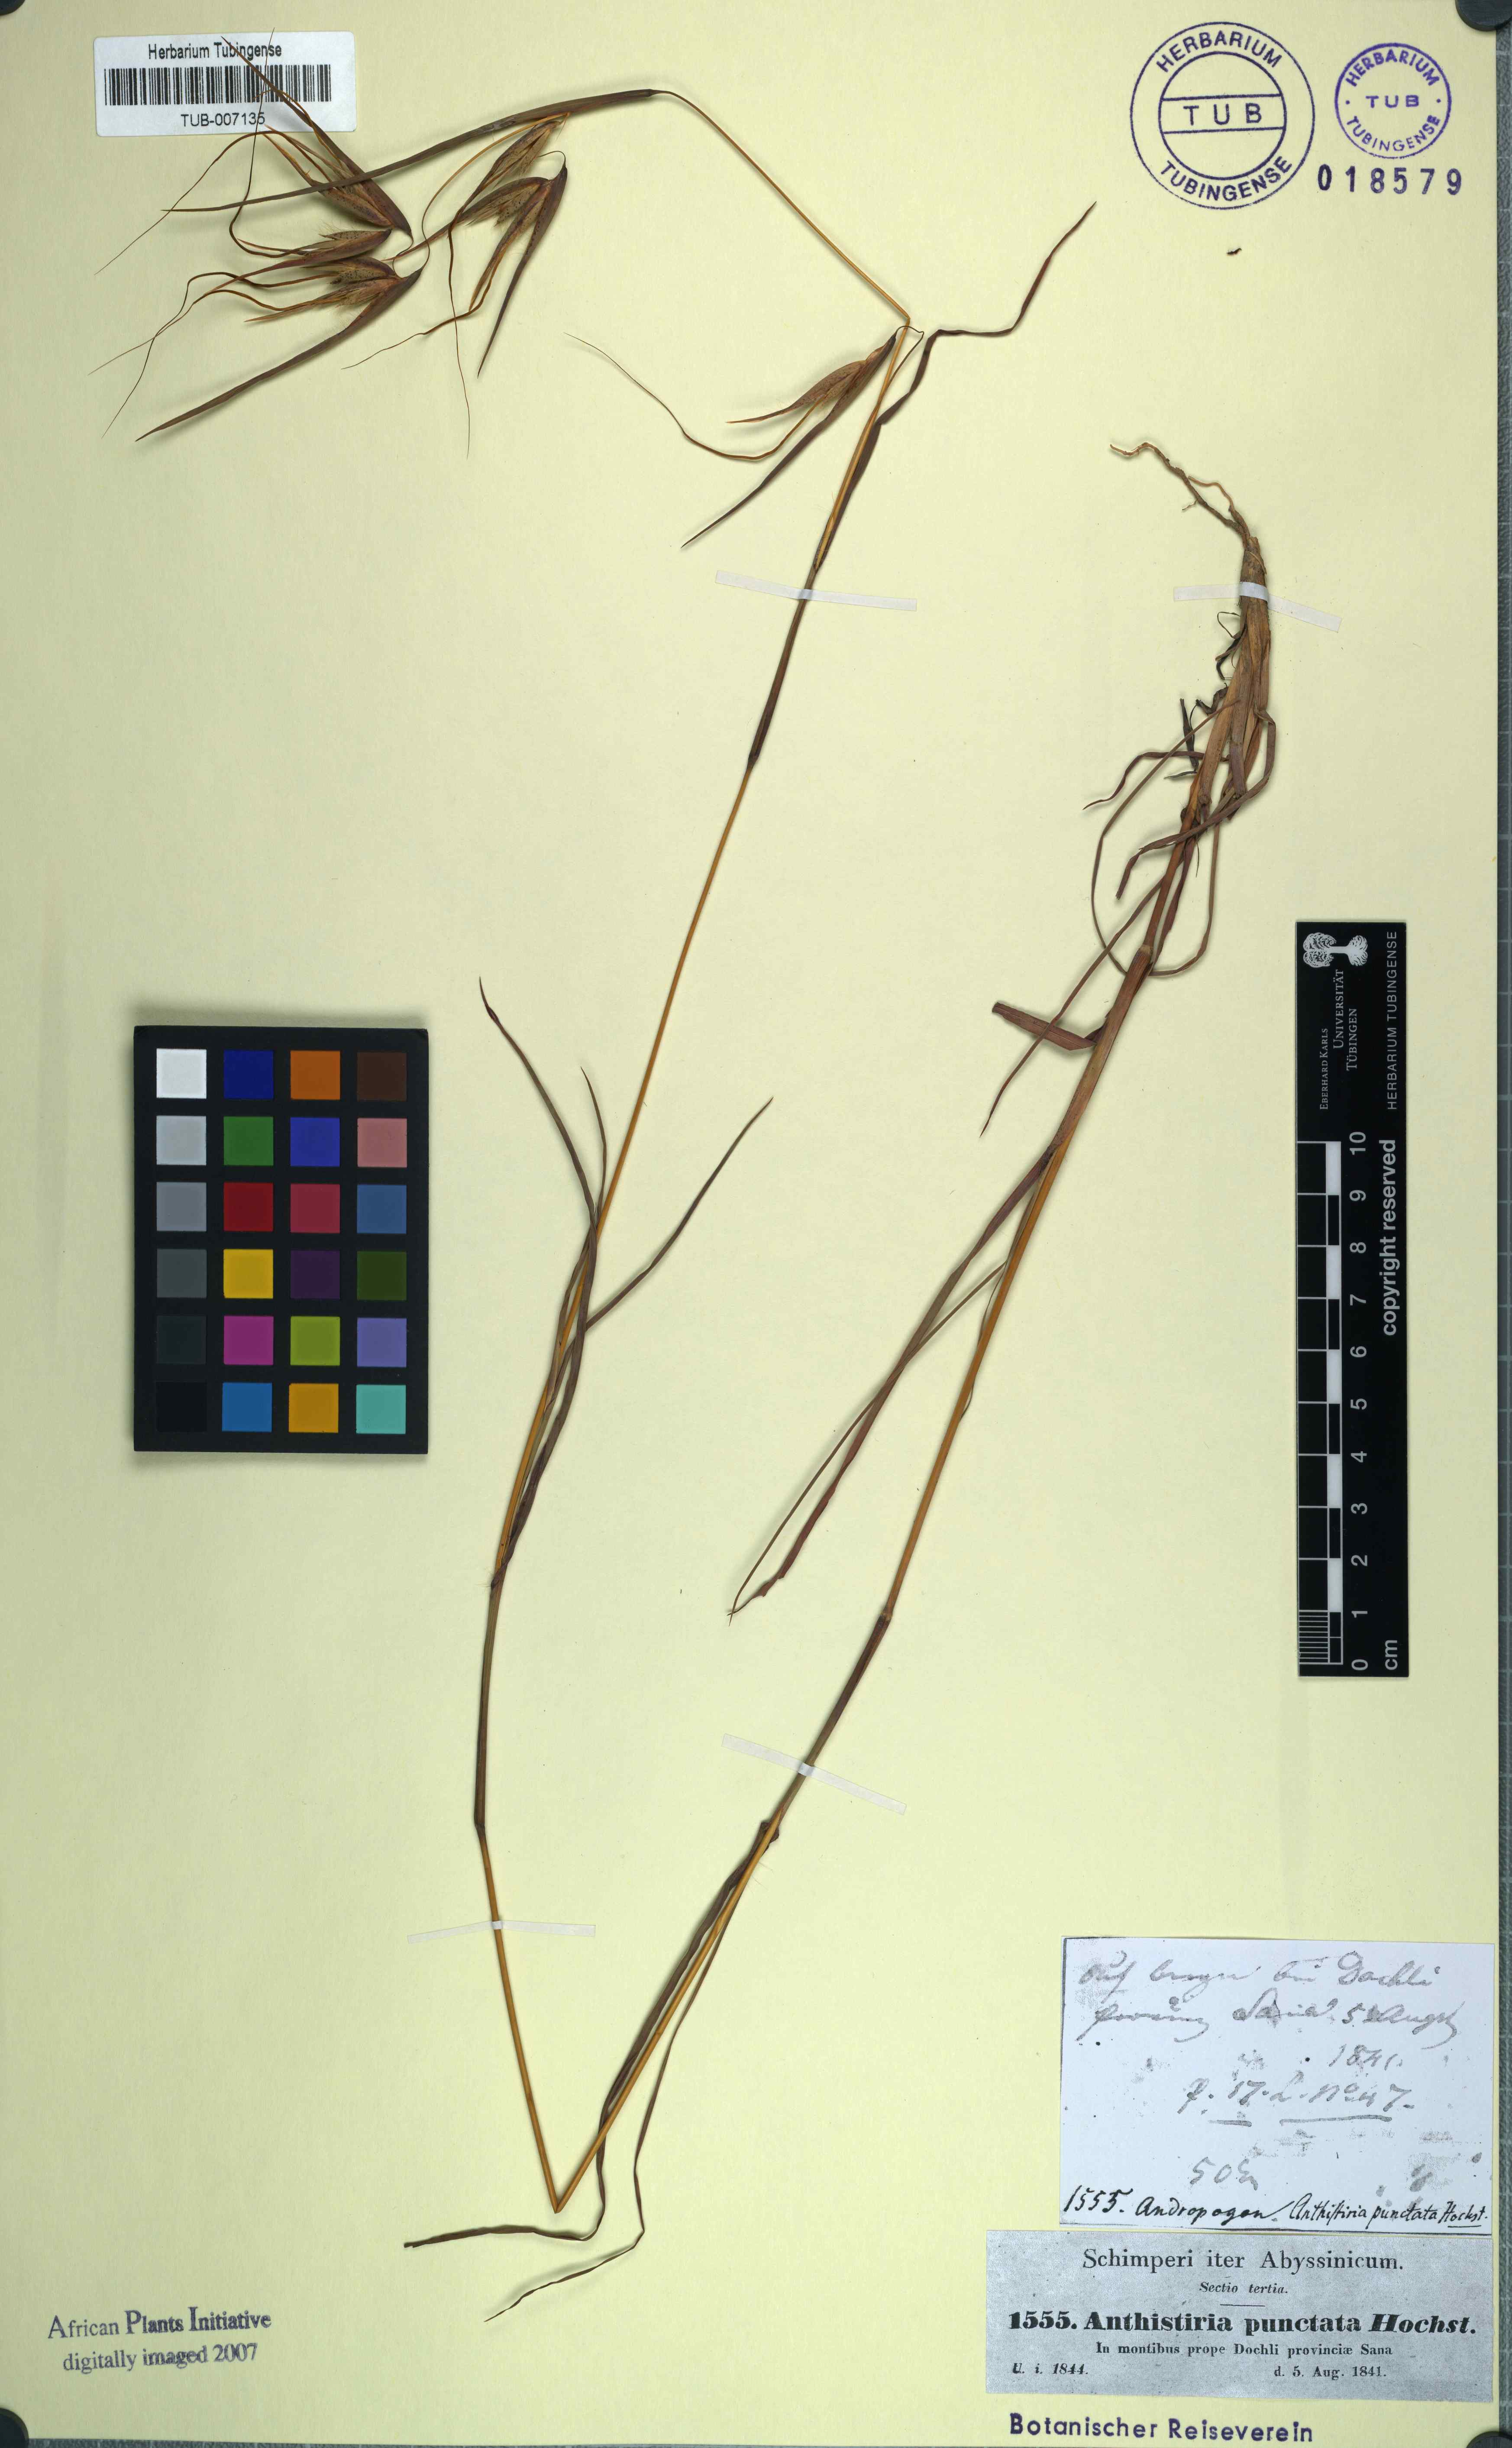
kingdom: Plantae
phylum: Tracheophyta
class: Liliopsida
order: Poales
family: Poaceae
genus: Themeda
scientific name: Themeda triandra
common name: Kangaroo grass
